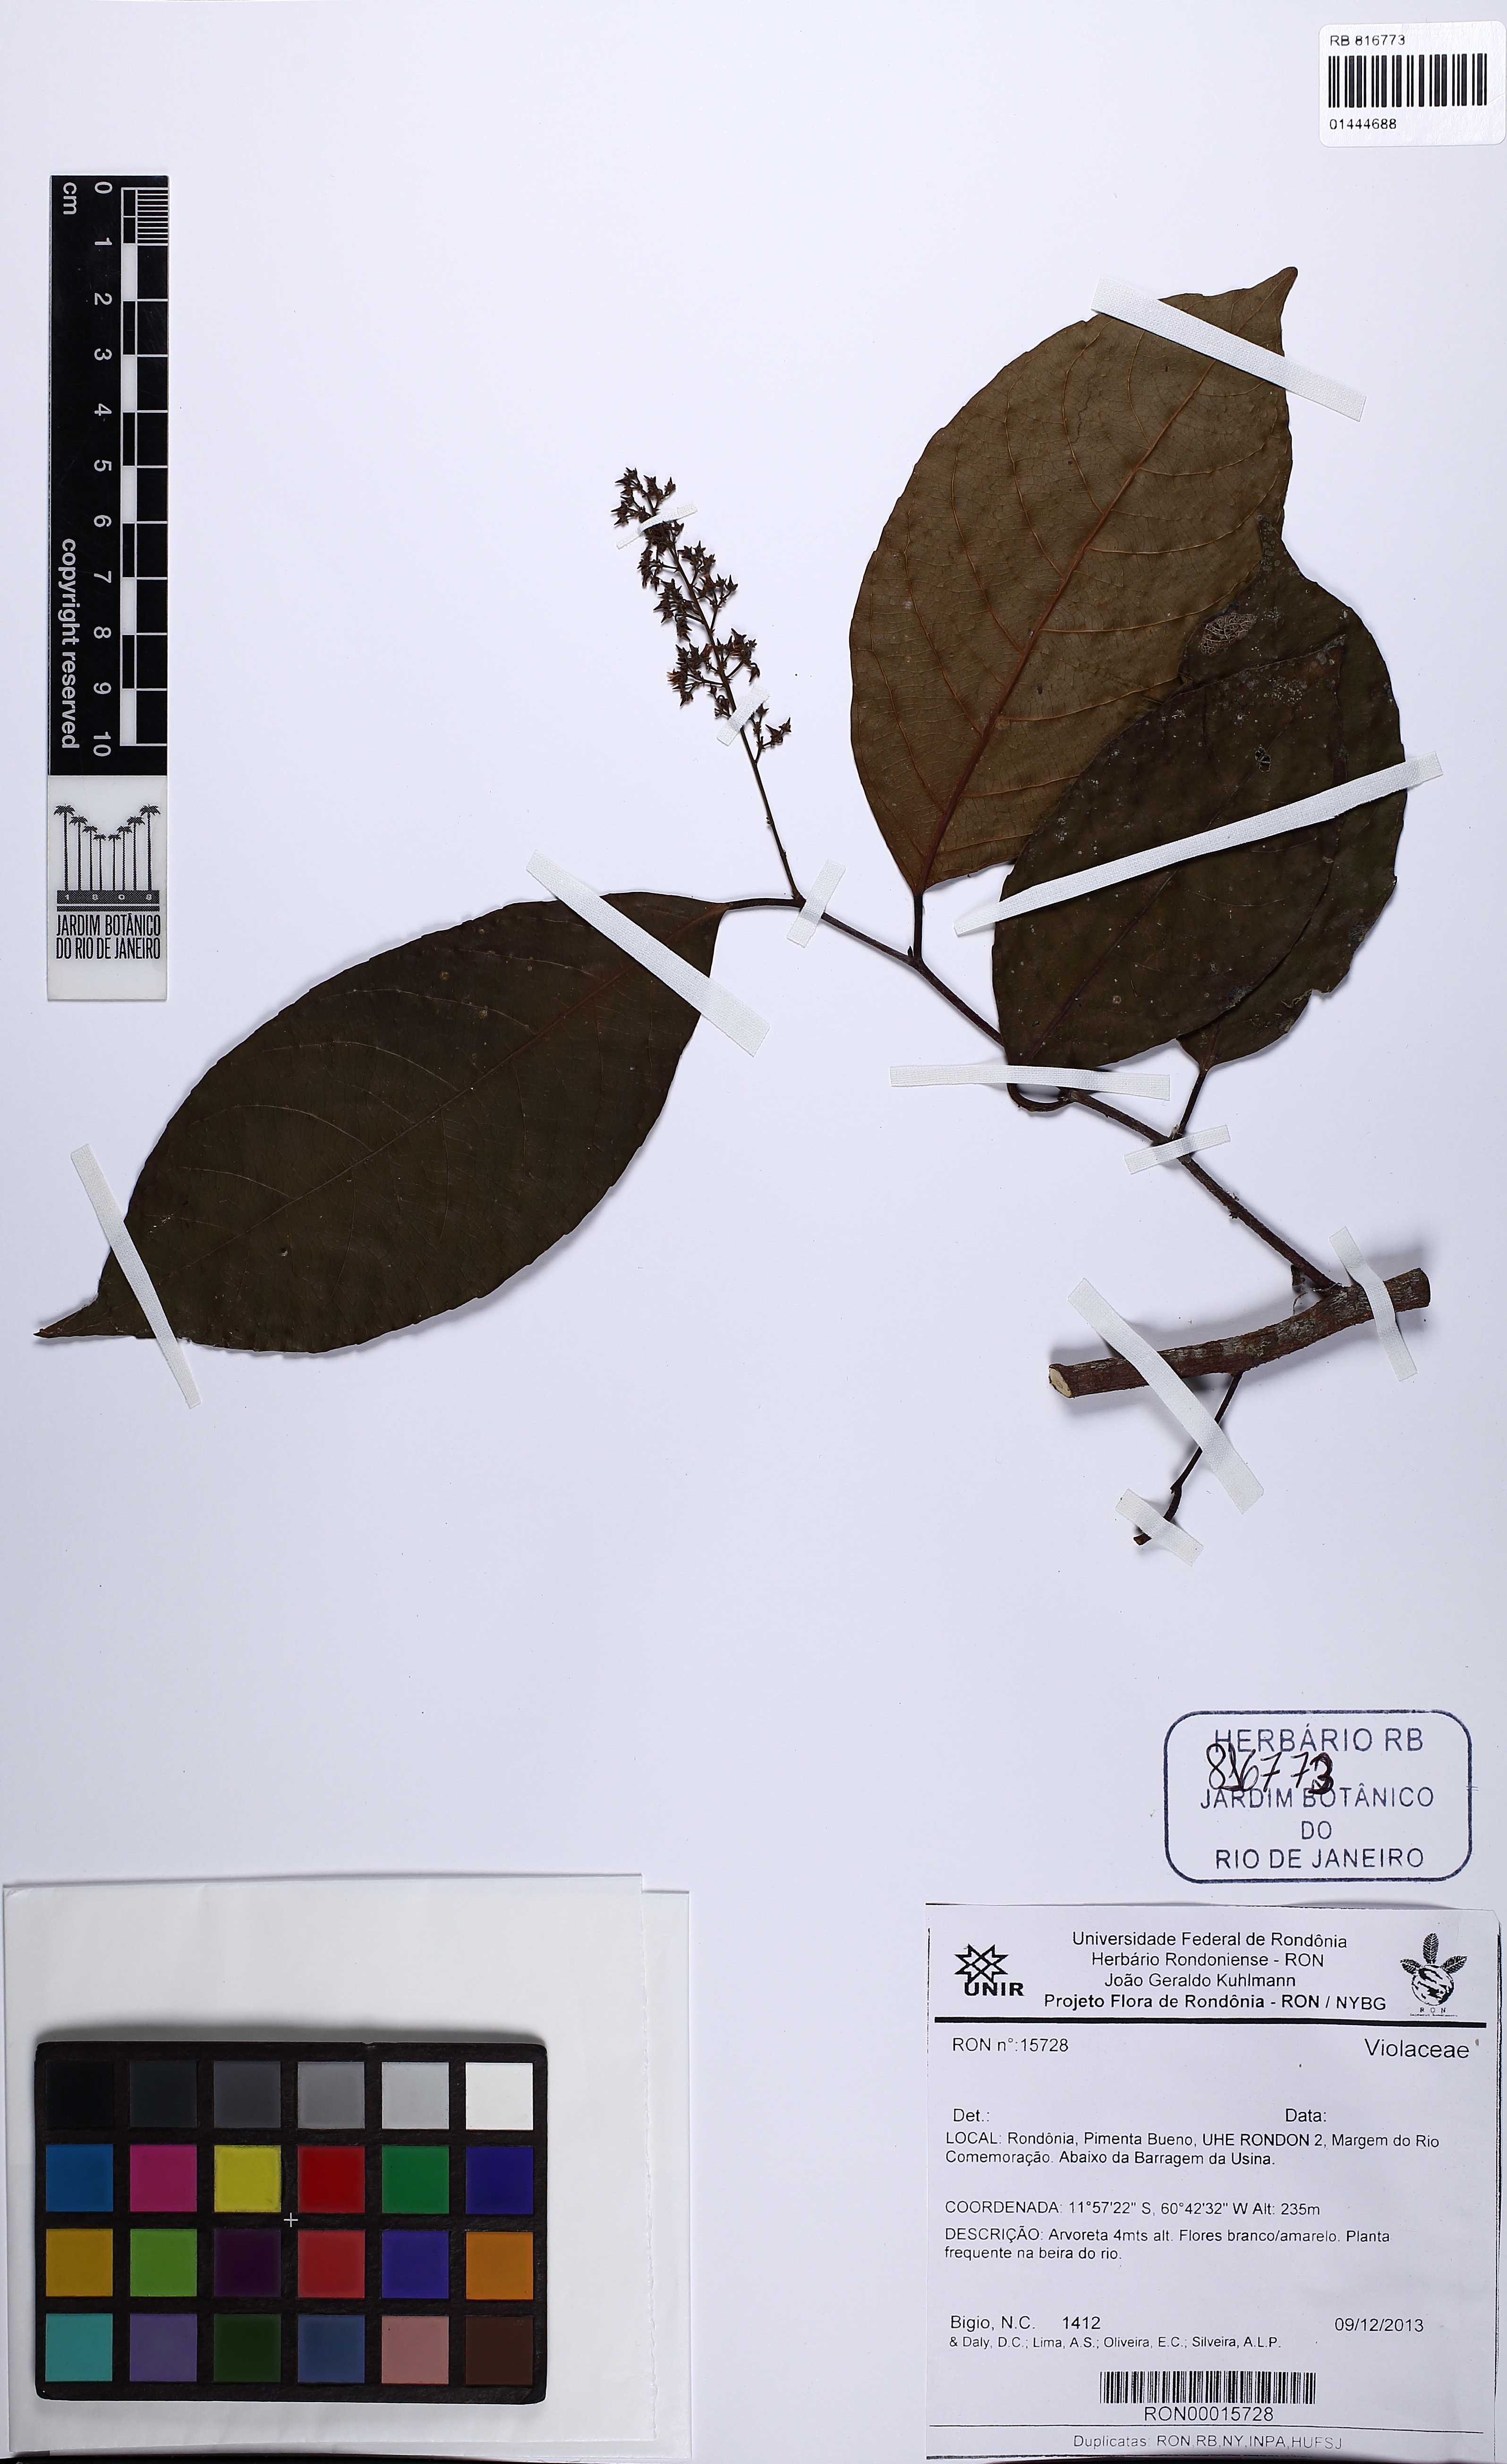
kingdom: Plantae
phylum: Tracheophyta
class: Magnoliopsida
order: Malpighiales
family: Violaceae
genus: Rinorea
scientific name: Rinorea
